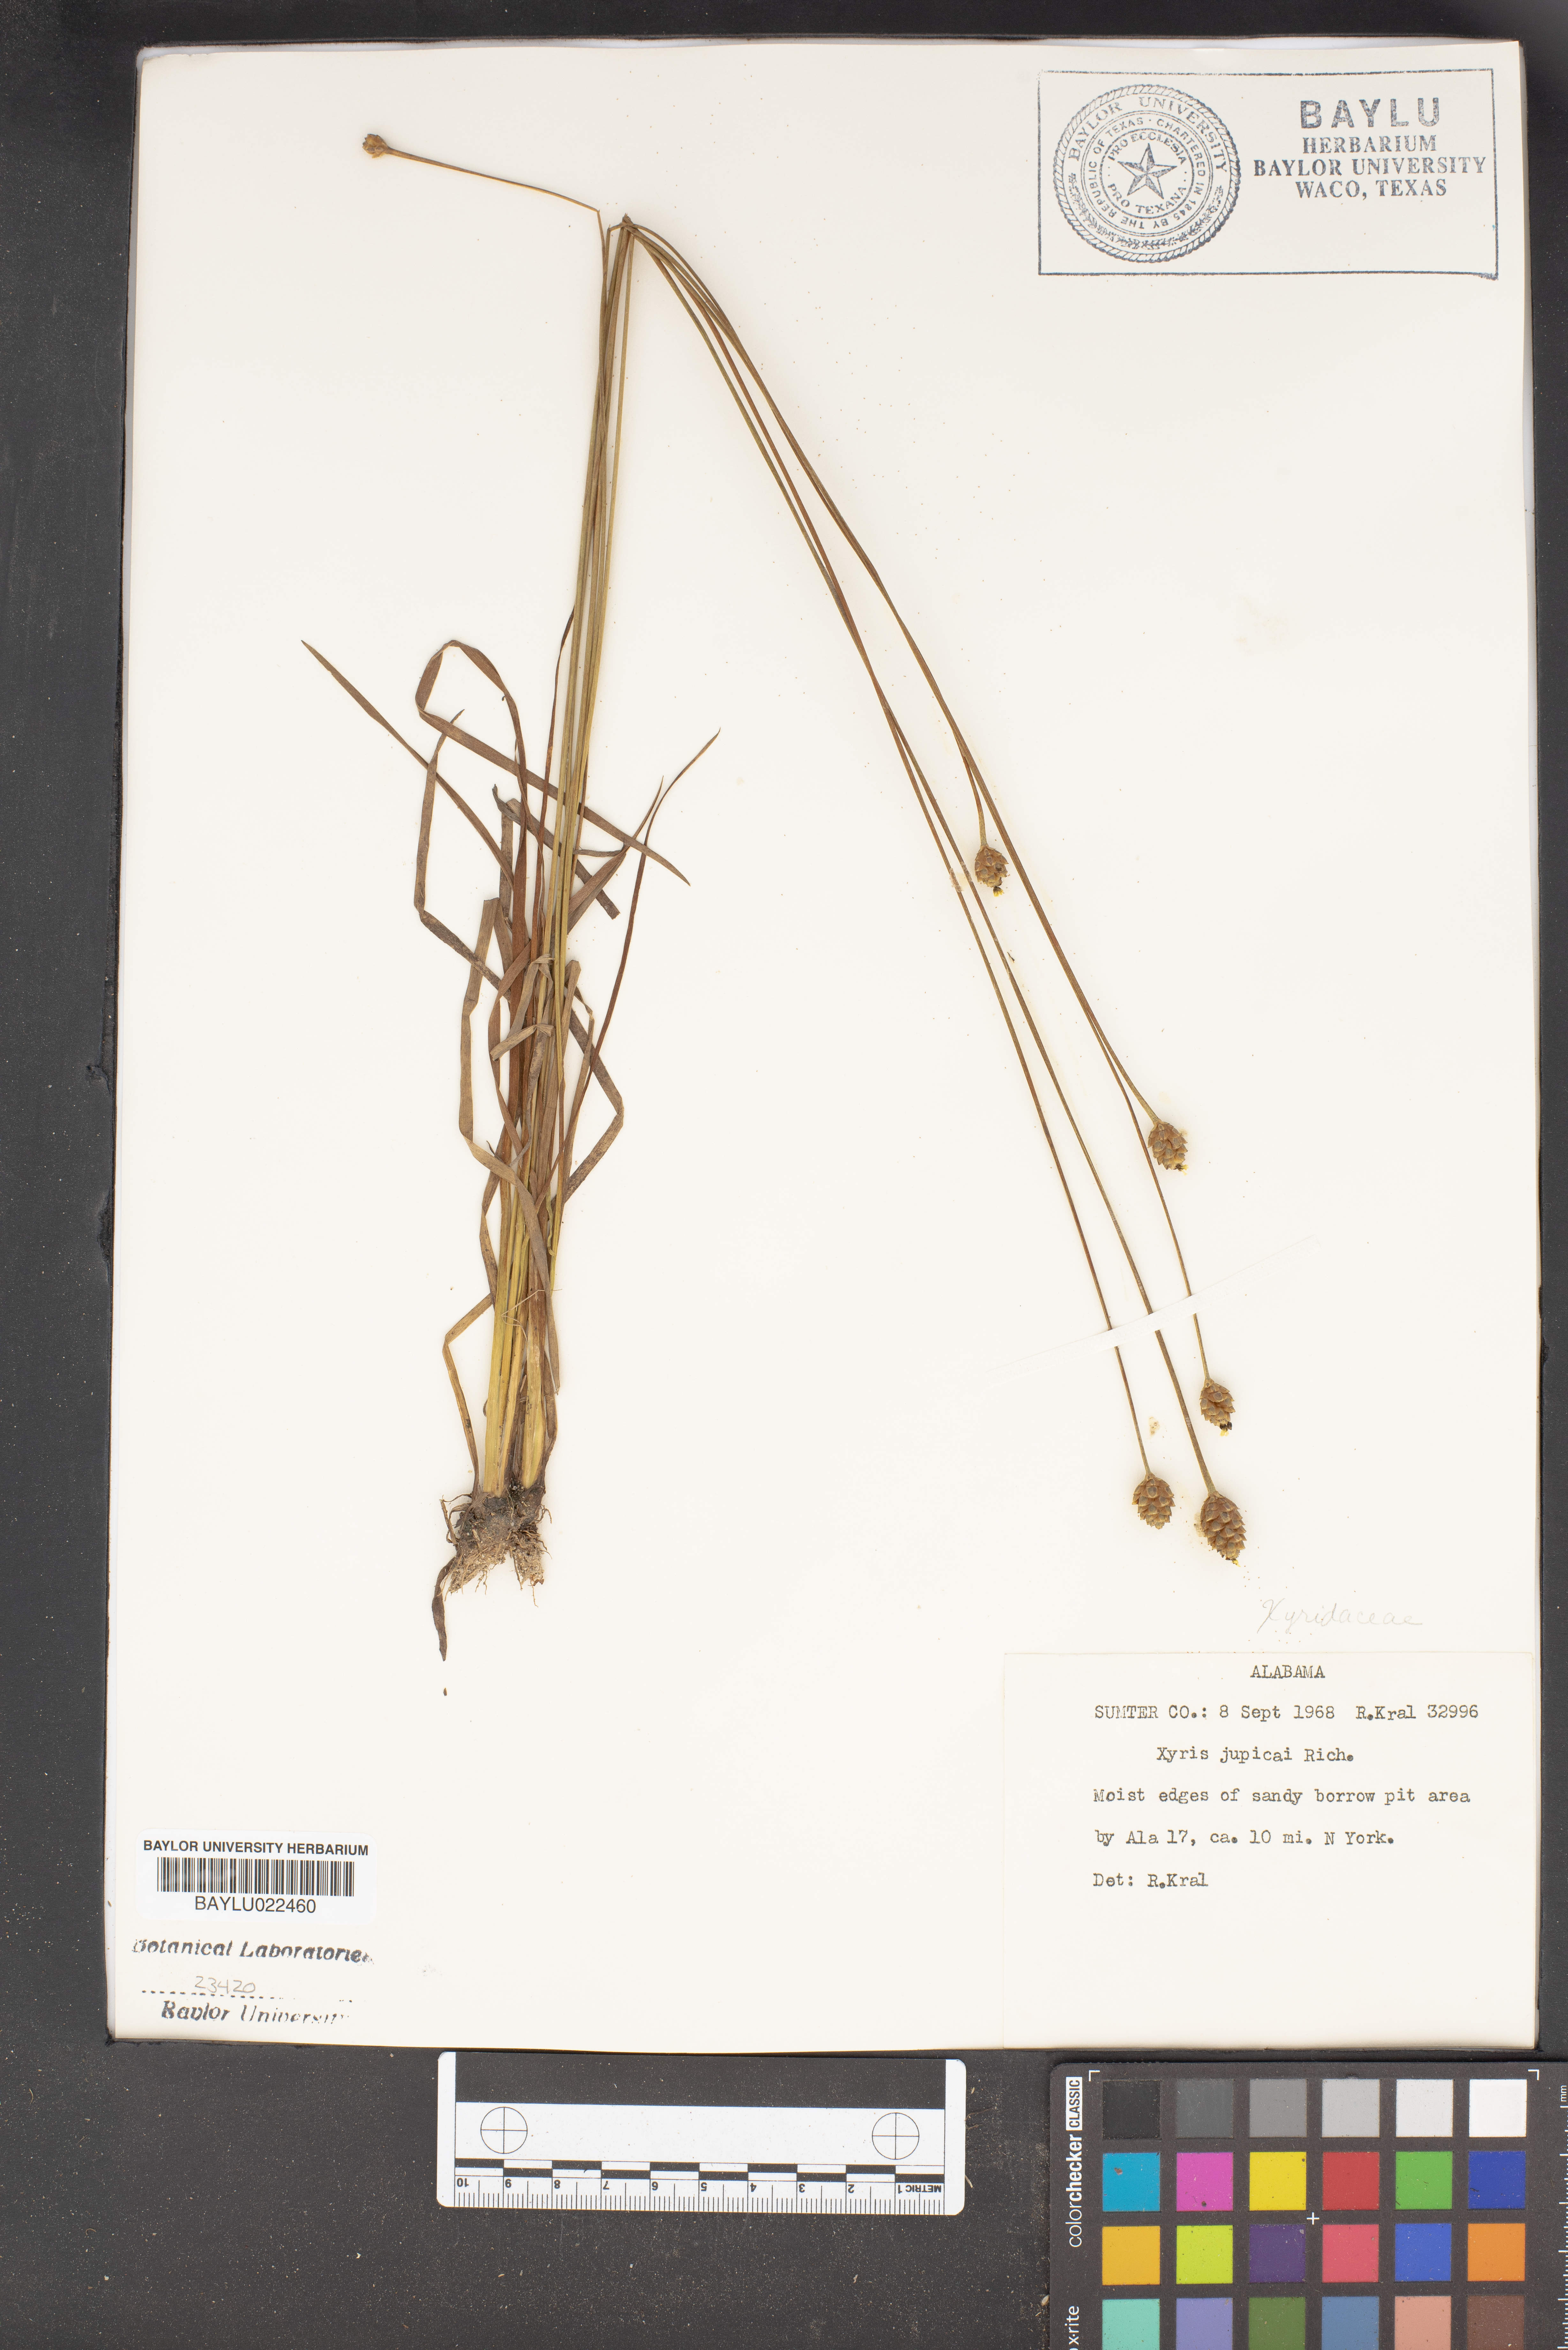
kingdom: Plantae
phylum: Tracheophyta
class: Liliopsida
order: Poales
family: Xyridaceae
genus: Xyris
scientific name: Xyris jupicai
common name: Richard's yelloweyed grass
